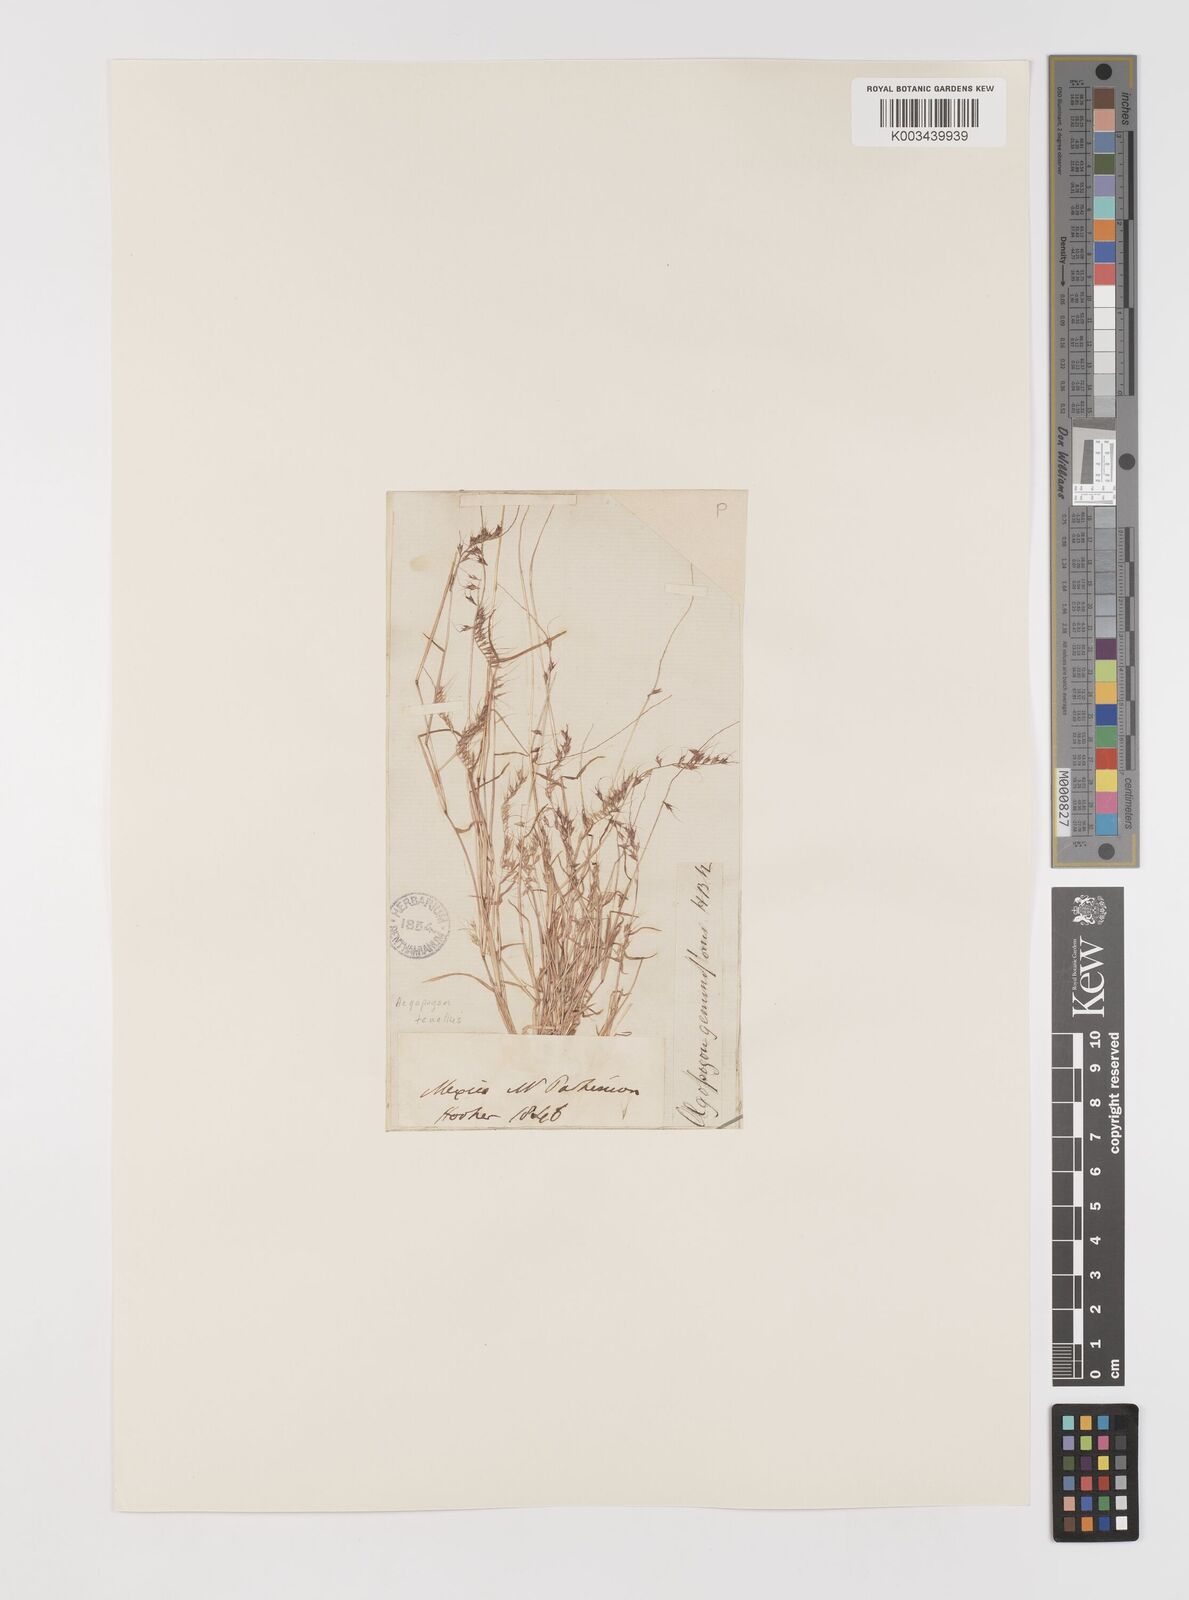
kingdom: Plantae
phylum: Tracheophyta
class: Liliopsida
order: Poales
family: Poaceae
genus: Muhlenbergia
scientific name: Muhlenbergia uniseta
